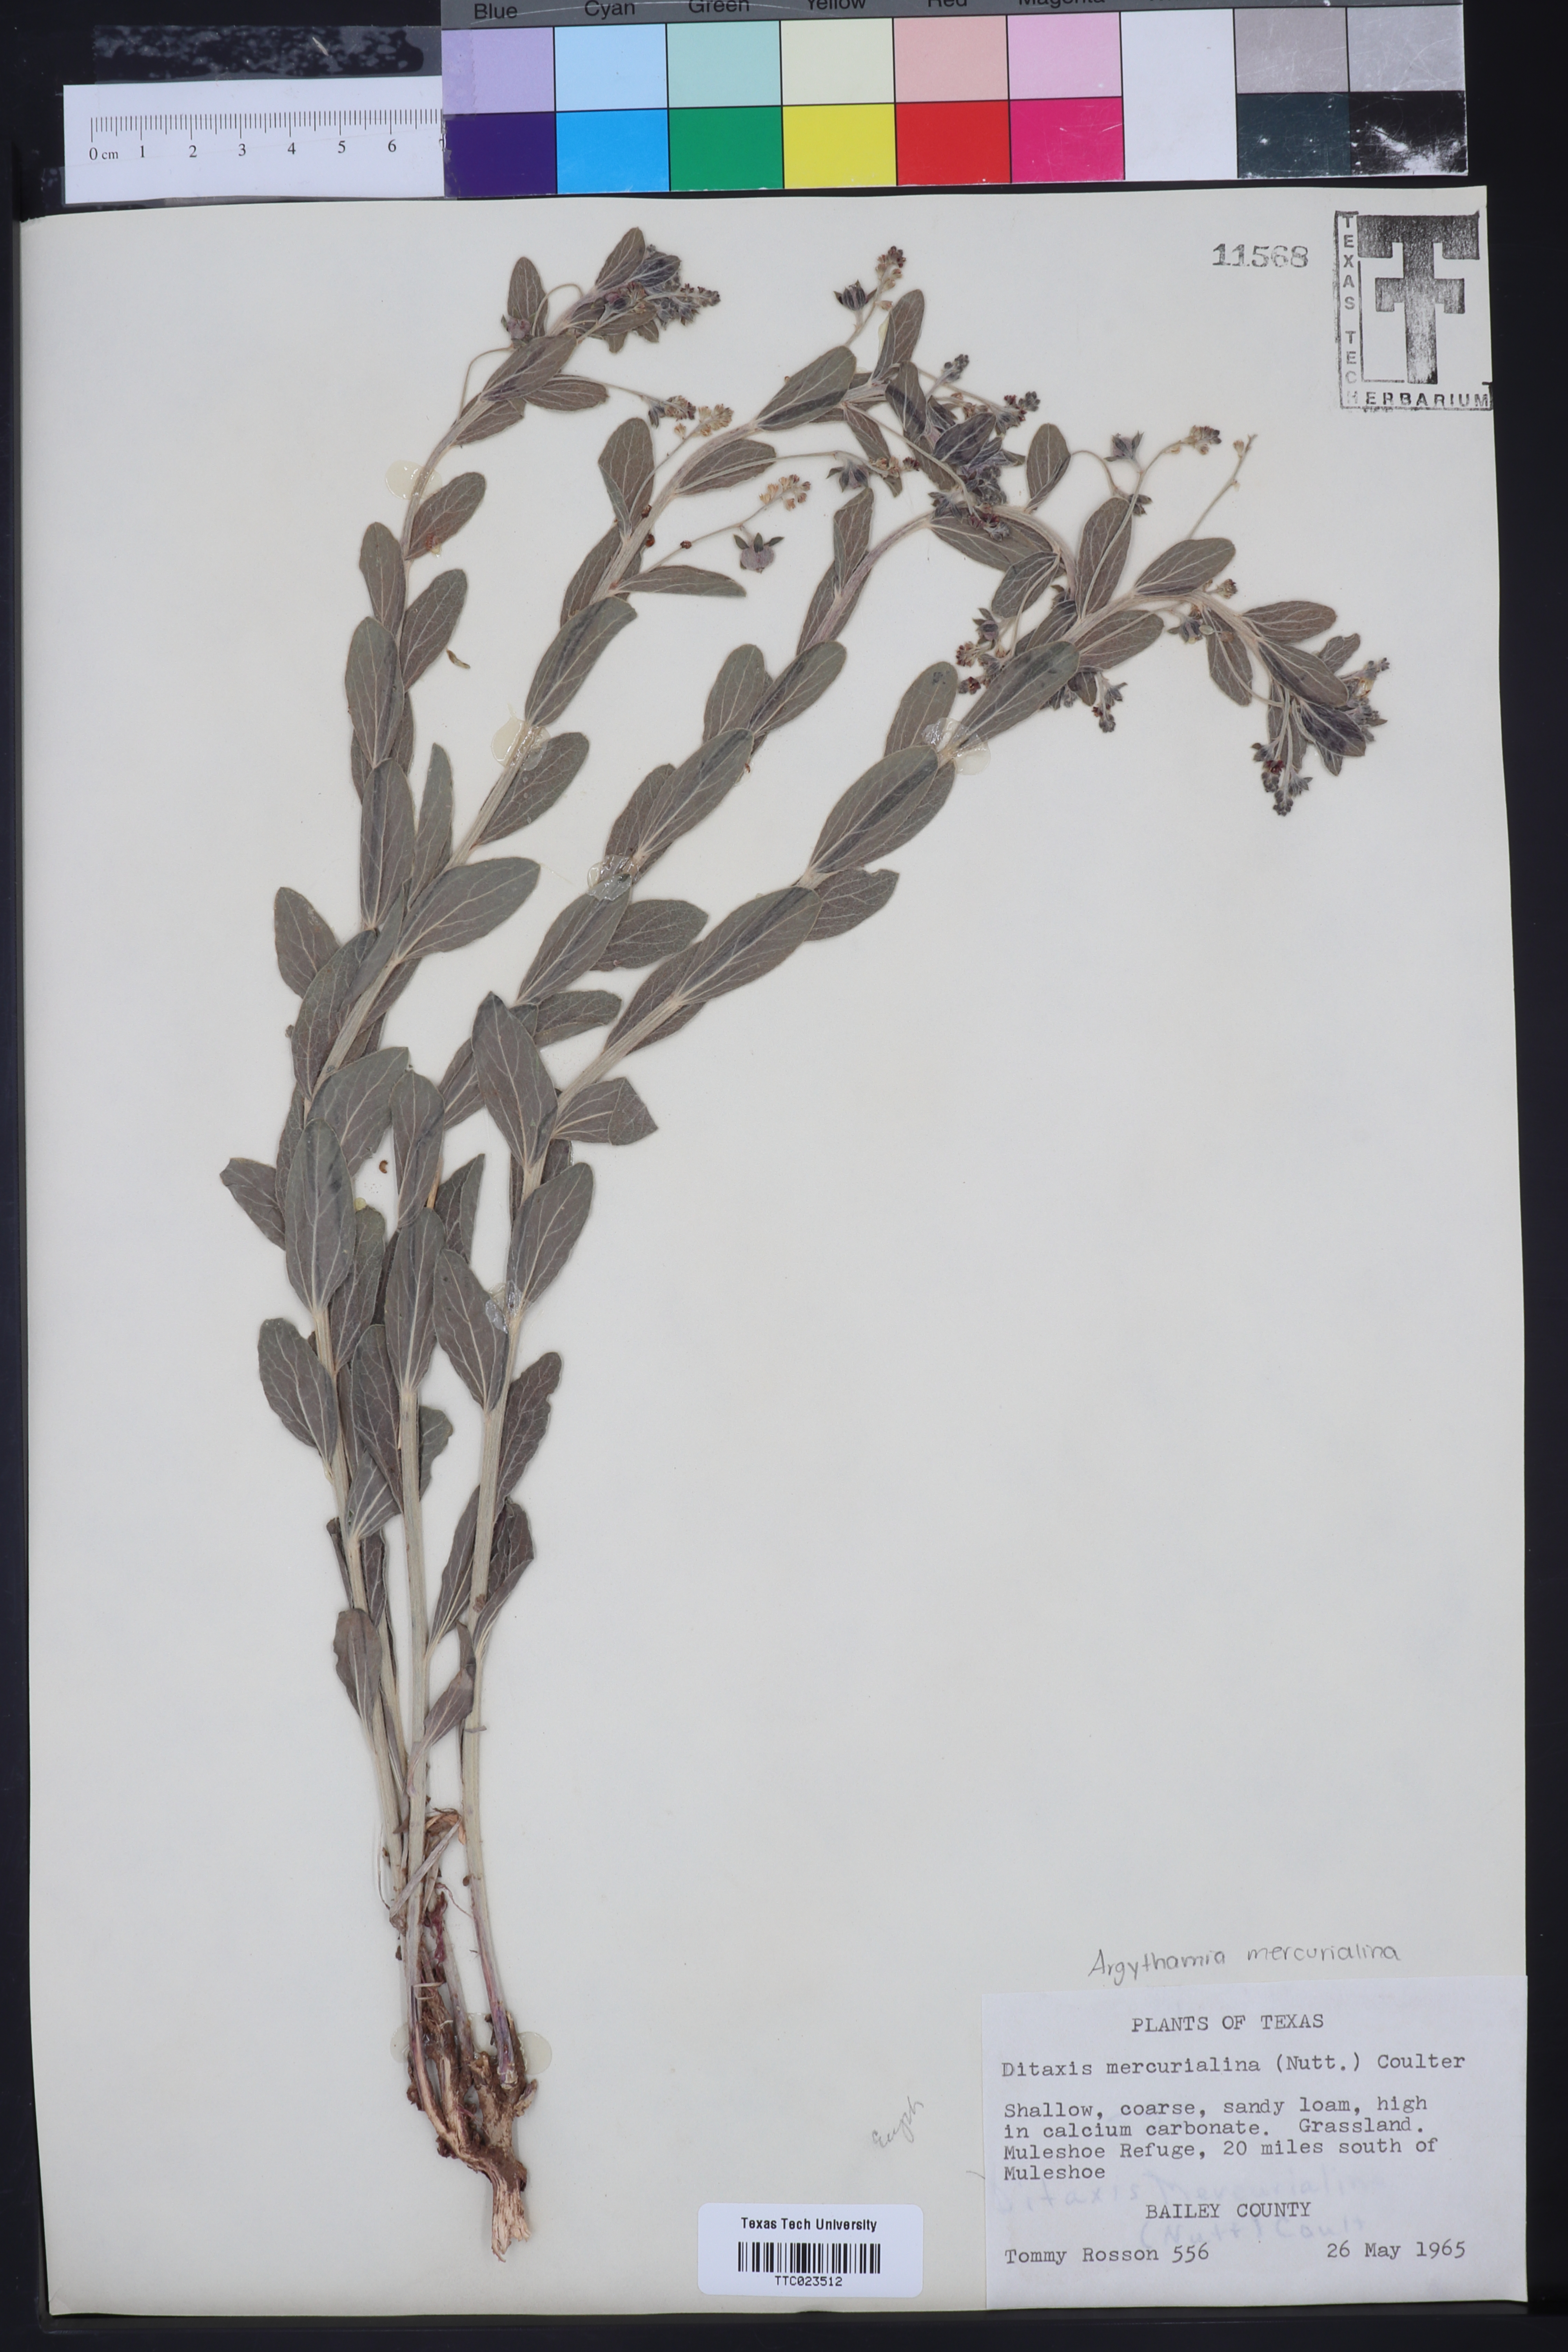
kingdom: Plantae
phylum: Tracheophyta
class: Magnoliopsida
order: Malpighiales
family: Euphorbiaceae
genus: Ditaxis
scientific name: Ditaxis mercurialina
